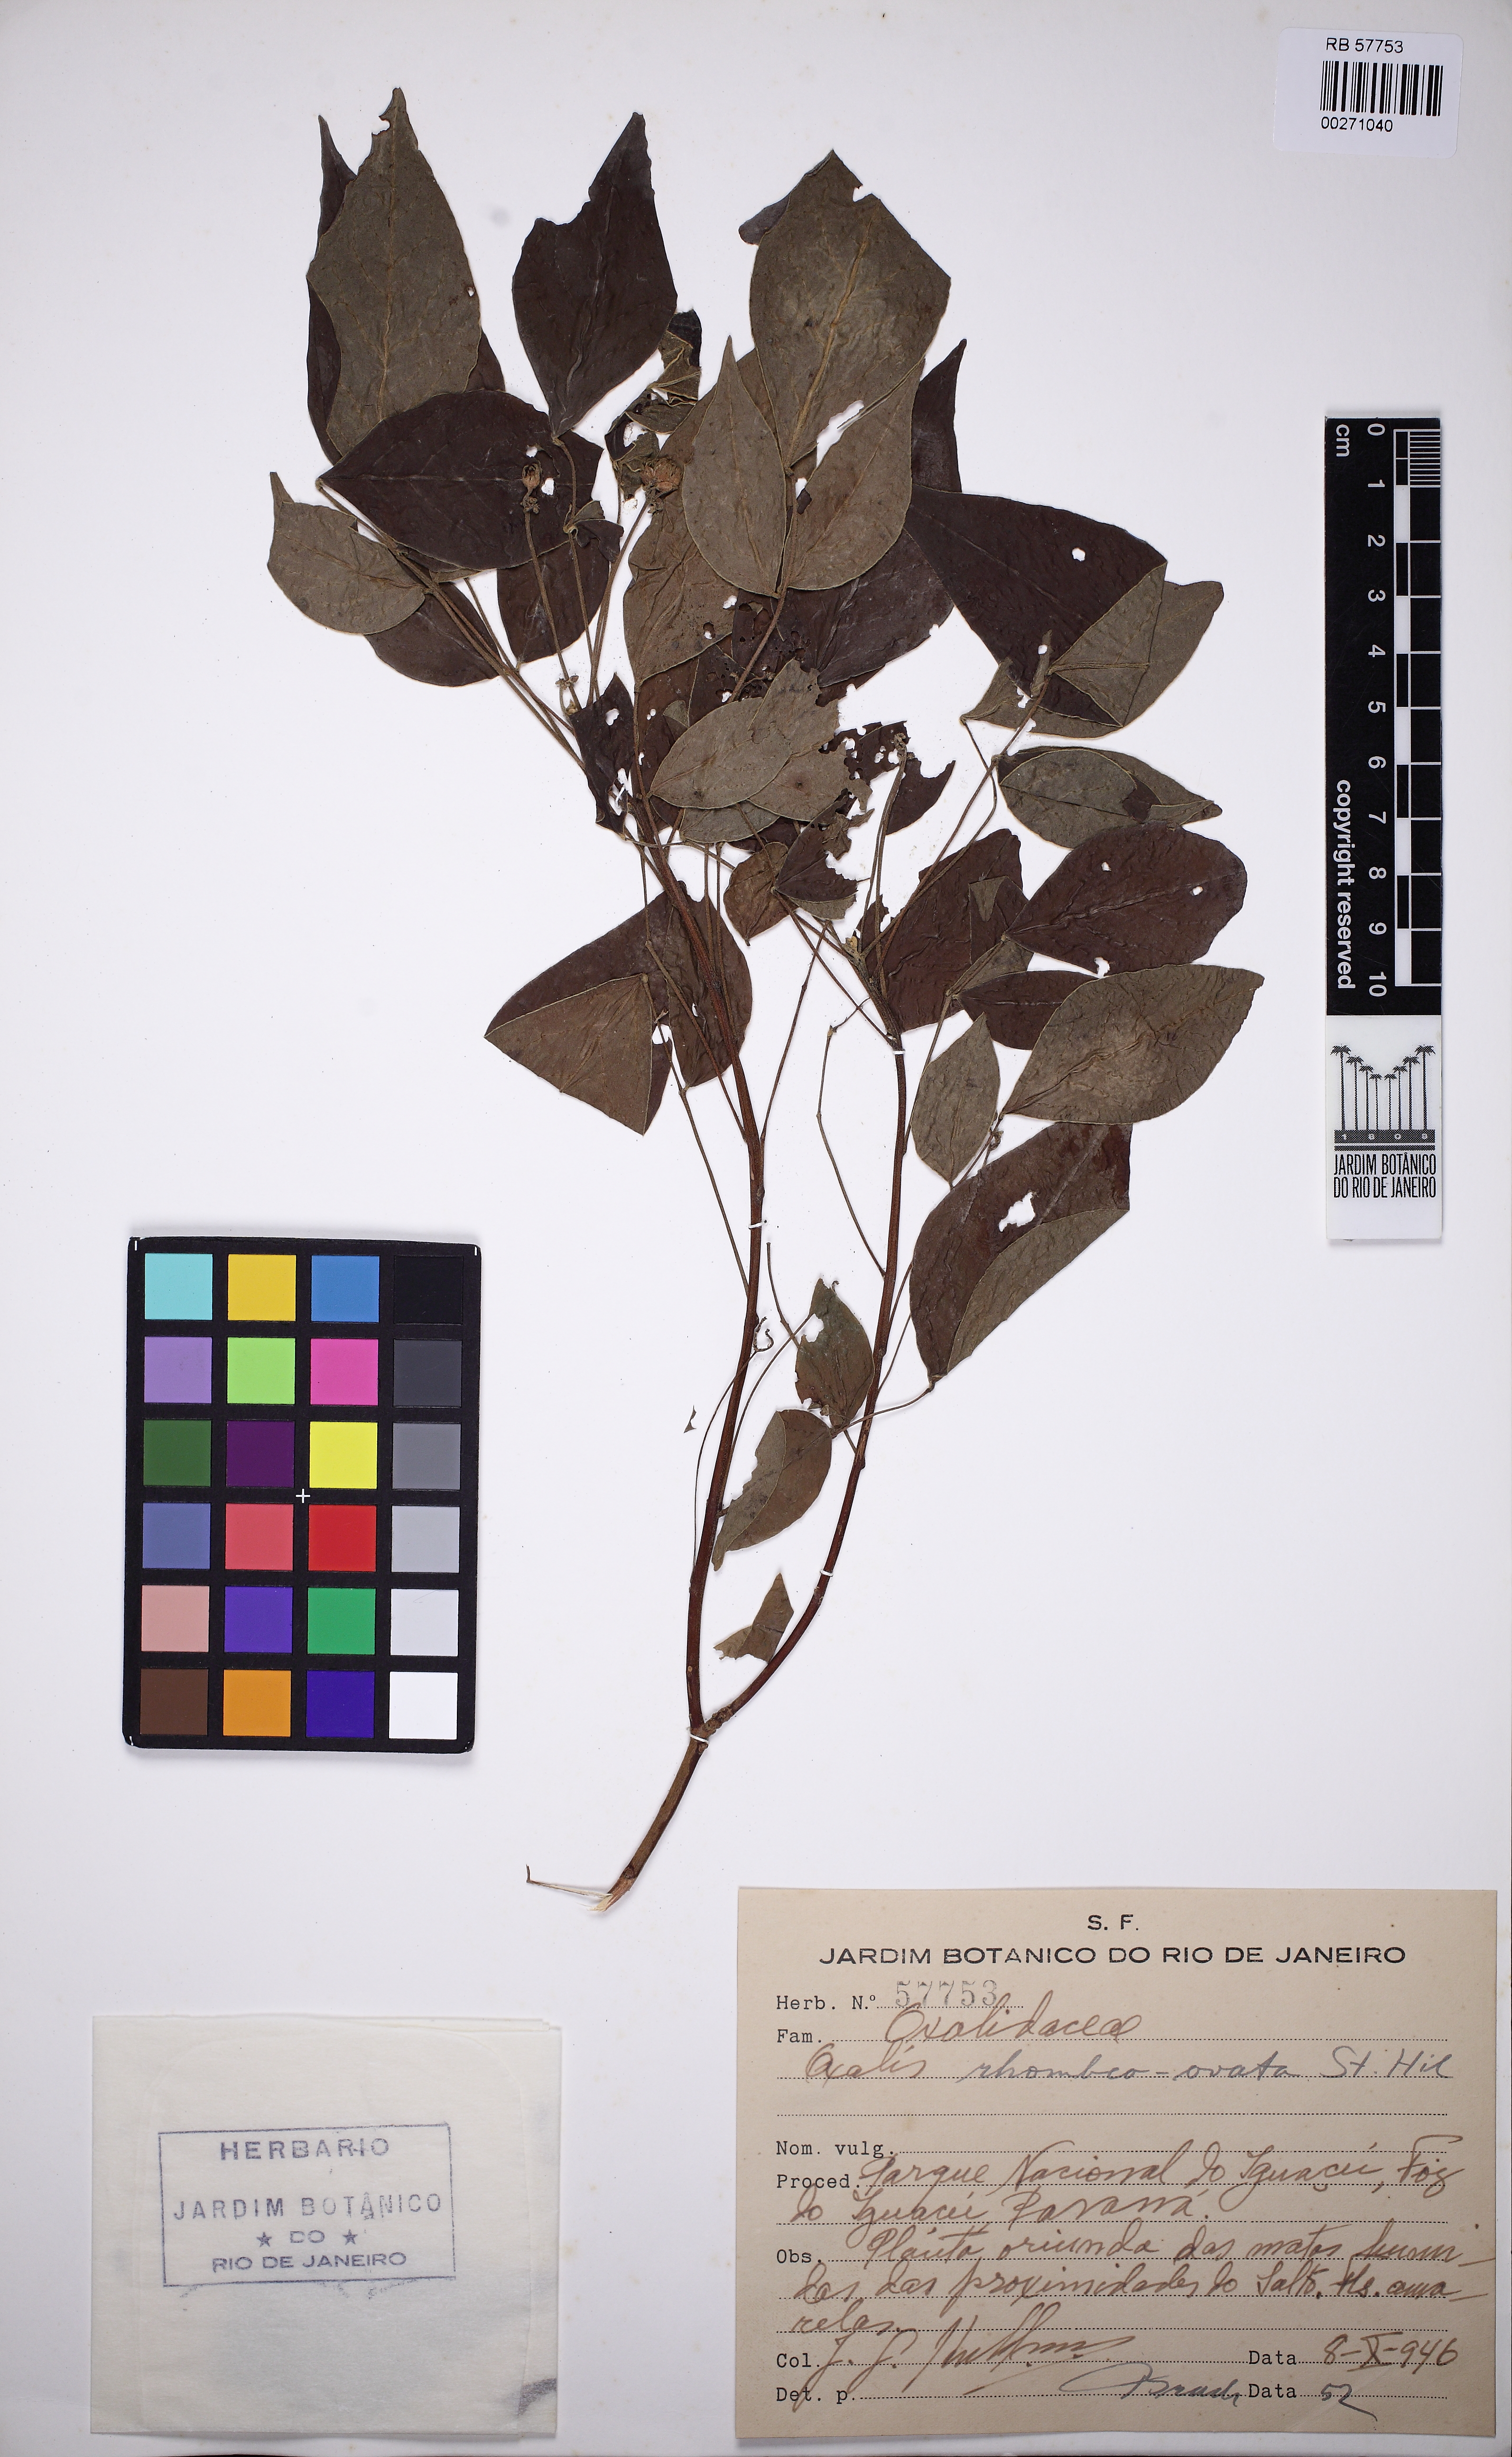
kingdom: Plantae
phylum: Tracheophyta
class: Magnoliopsida
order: Oxalidales
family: Oxalidaceae
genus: Oxalis
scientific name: Oxalis rhombeo-ovata
